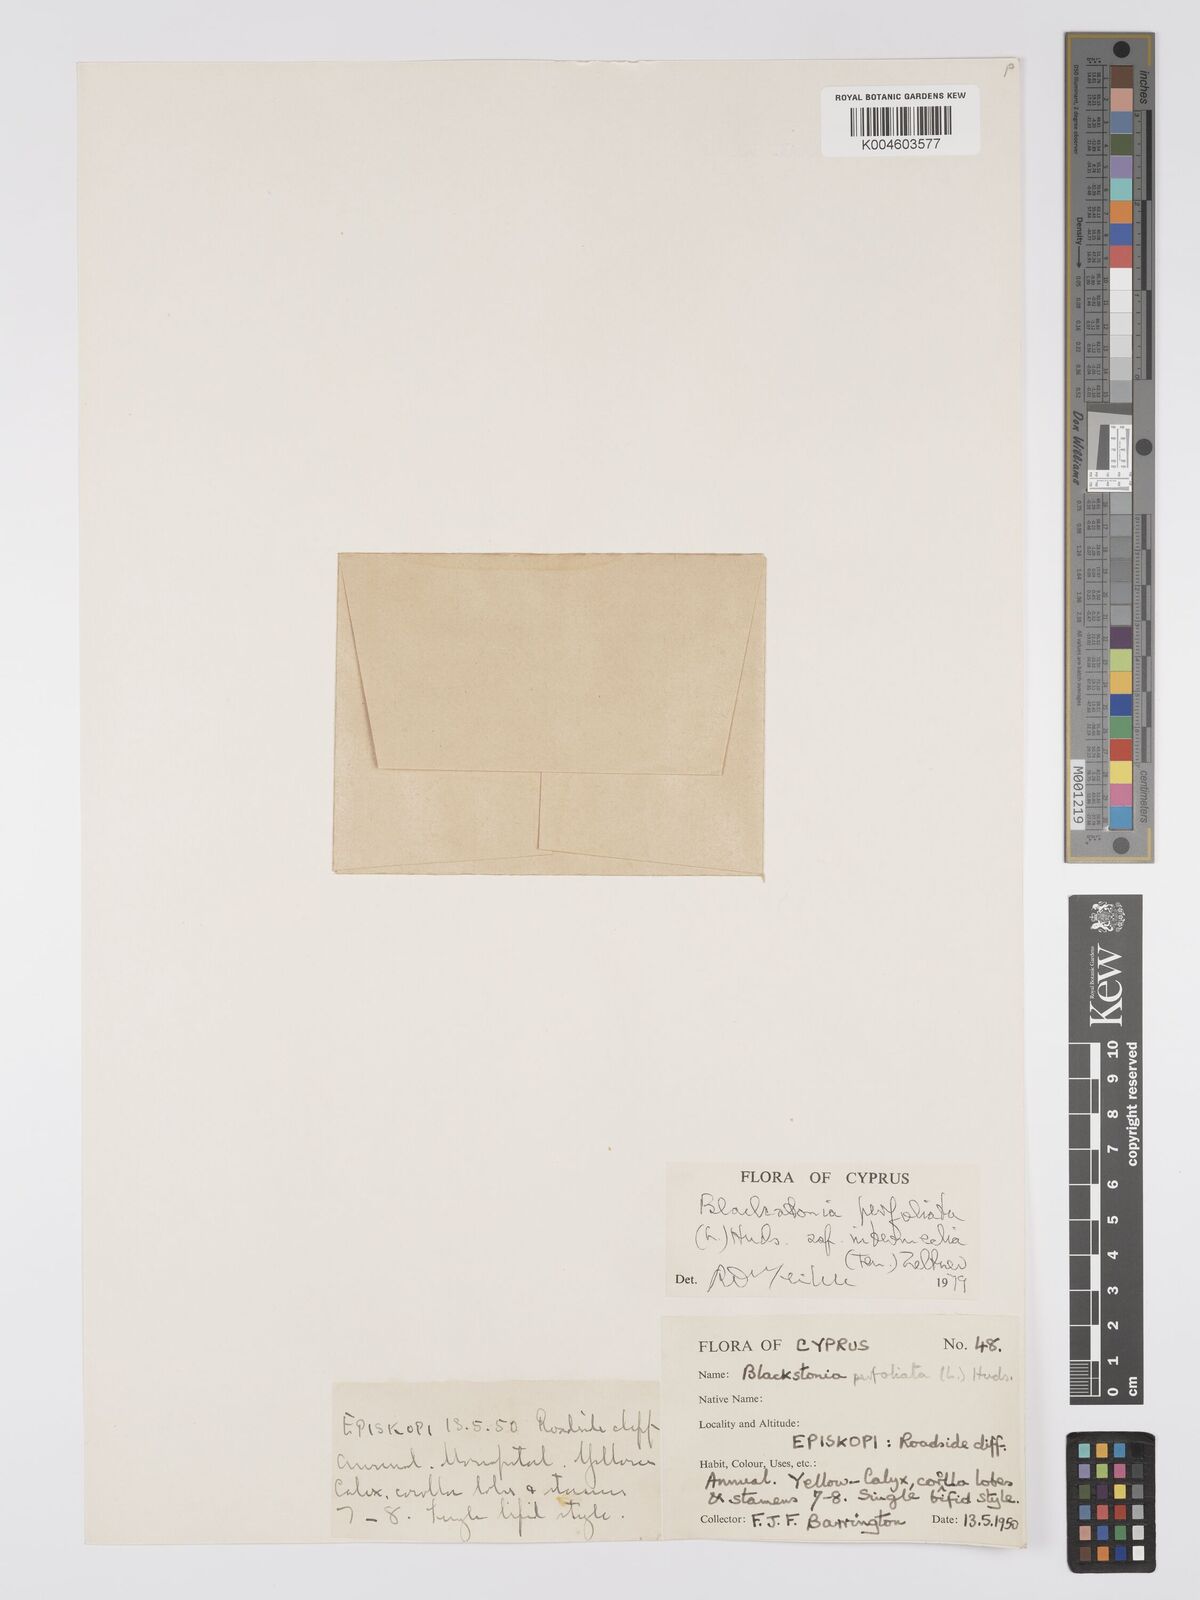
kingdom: Plantae
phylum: Tracheophyta
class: Magnoliopsida
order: Gentianales
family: Gentianaceae
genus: Blackstonia
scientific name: Blackstonia perfoliata
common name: Yellow-wort
